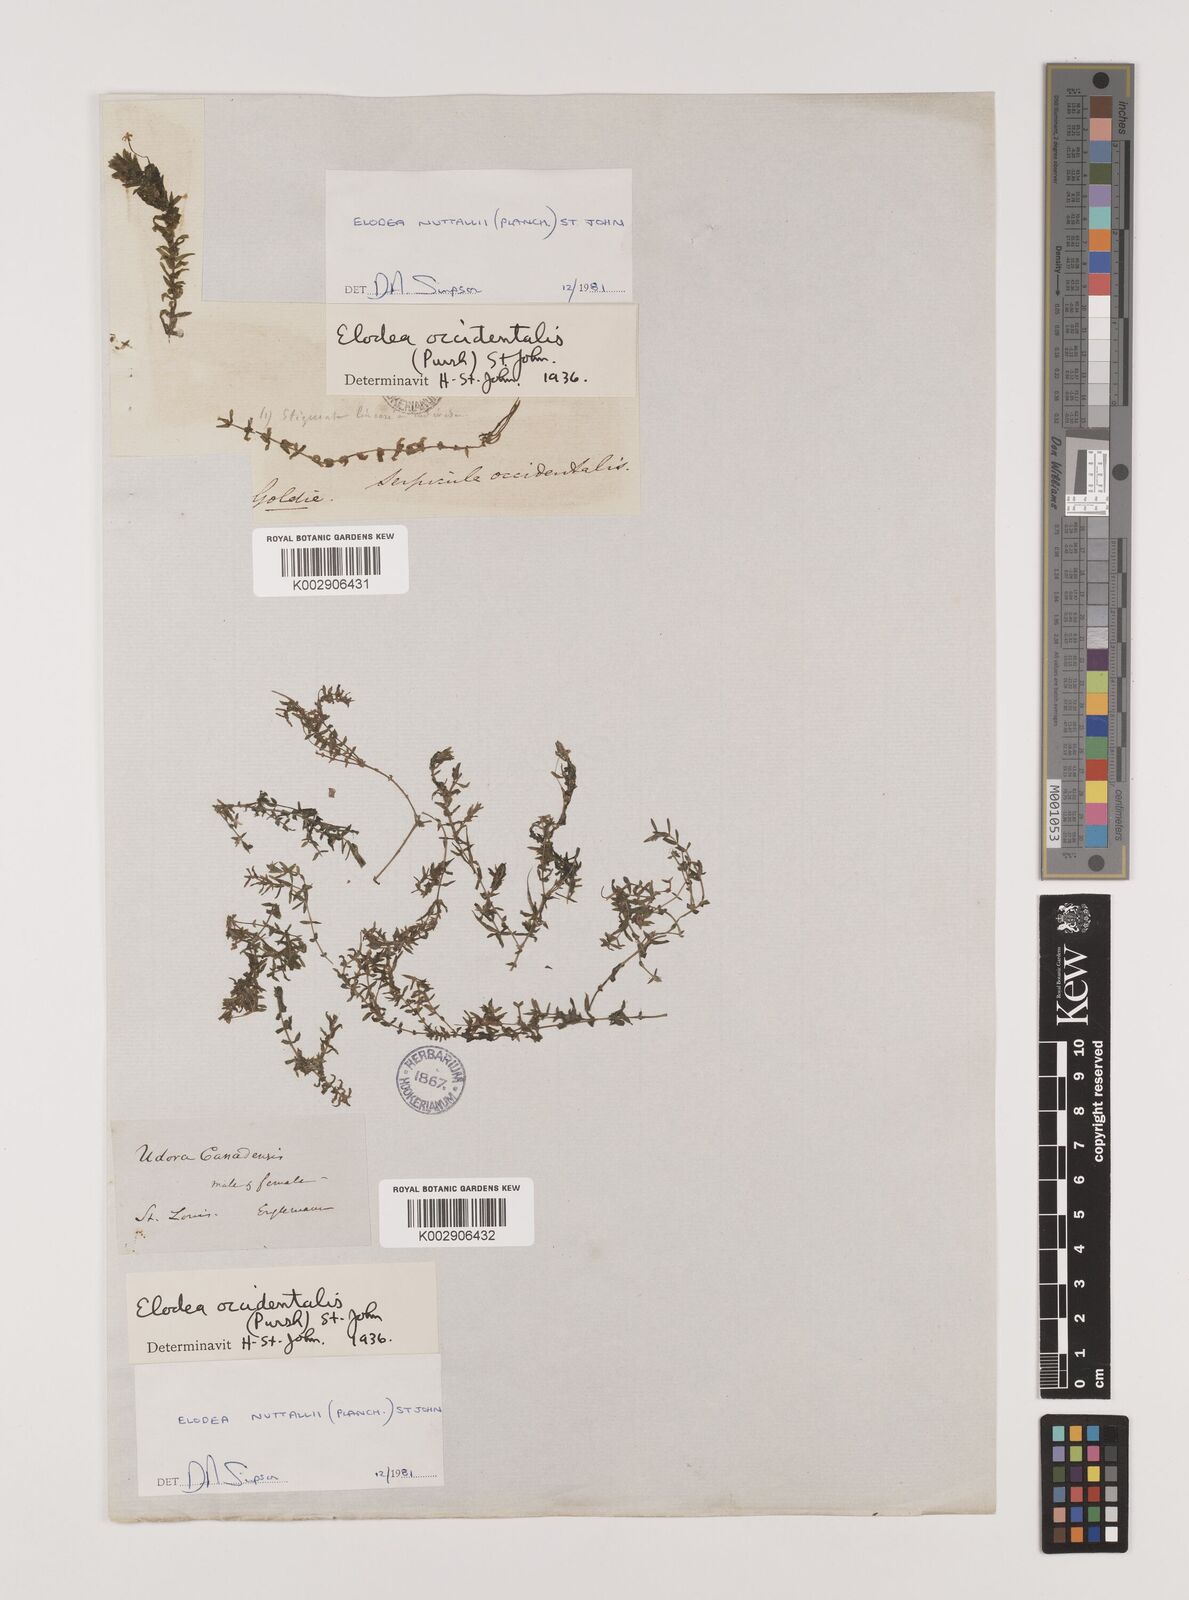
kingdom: Plantae
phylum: Tracheophyta
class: Liliopsida
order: Alismatales
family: Hydrocharitaceae
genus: Elodea
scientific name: Elodea nuttallii
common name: Nuttall's waterweed
